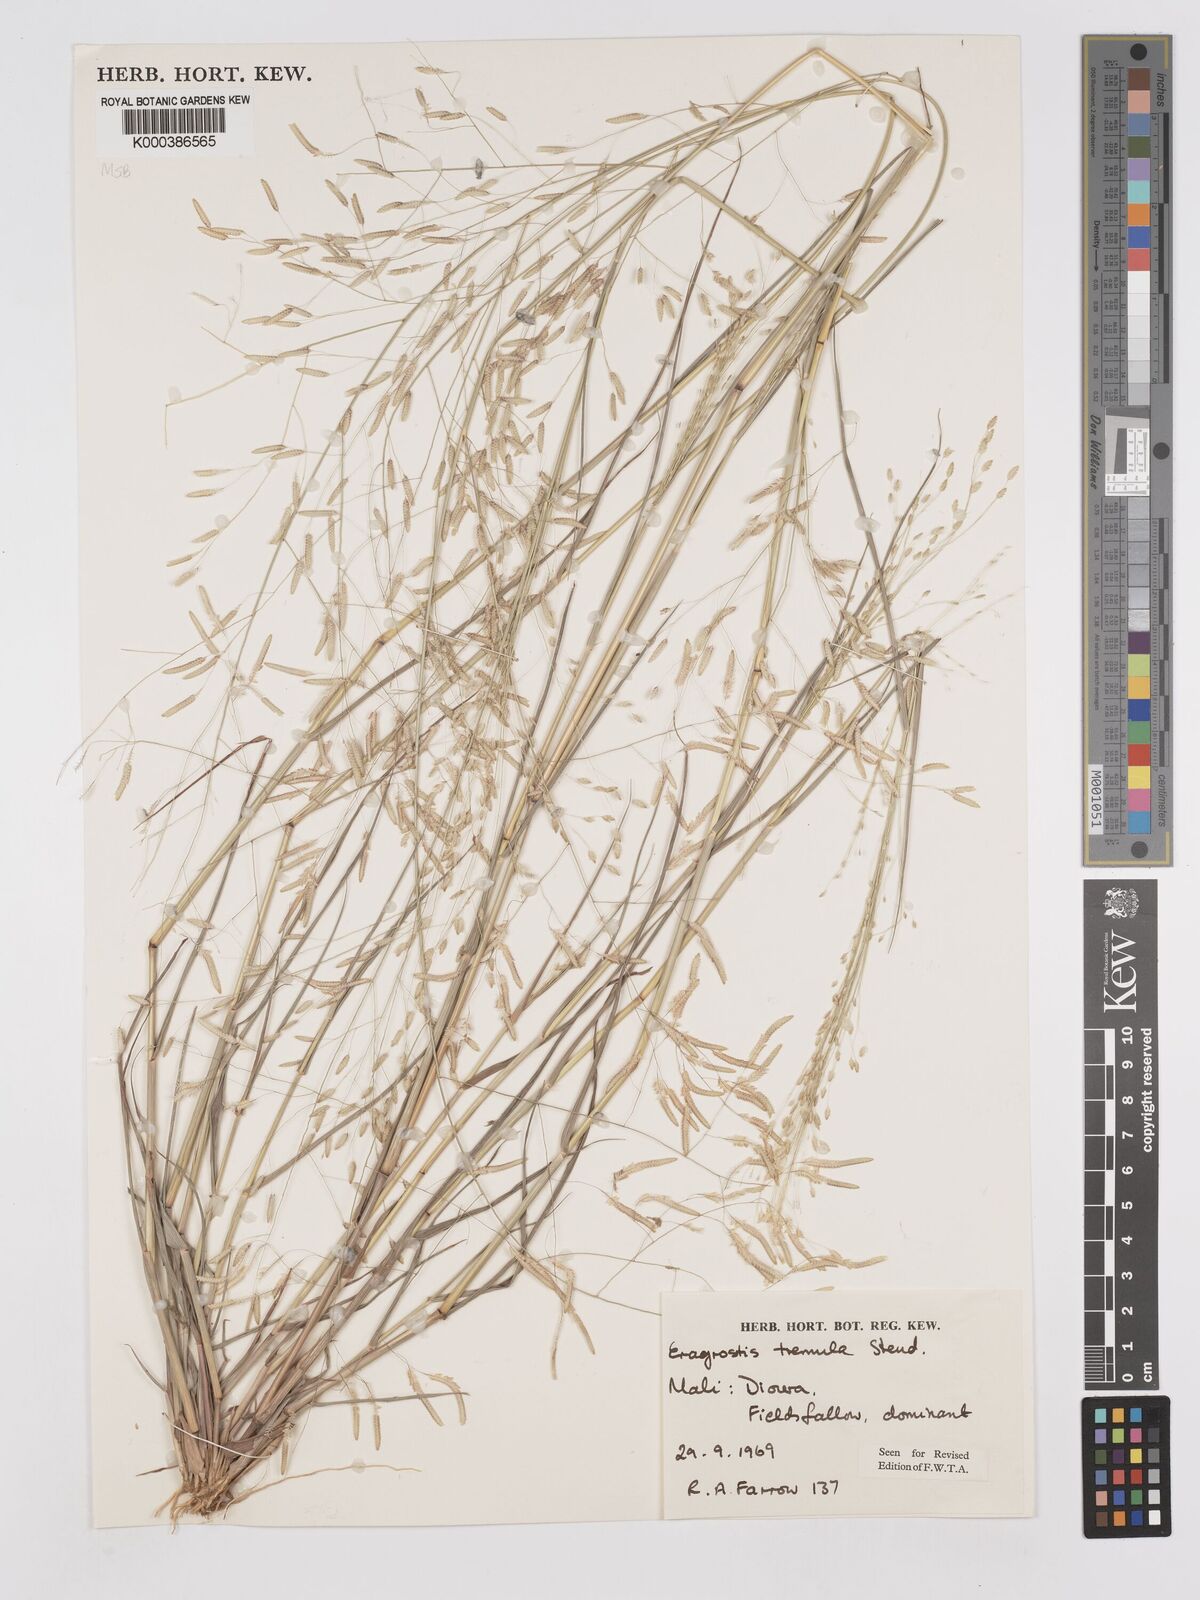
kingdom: Plantae
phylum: Tracheophyta
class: Liliopsida
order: Poales
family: Poaceae
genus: Eragrostis
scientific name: Eragrostis tremula
